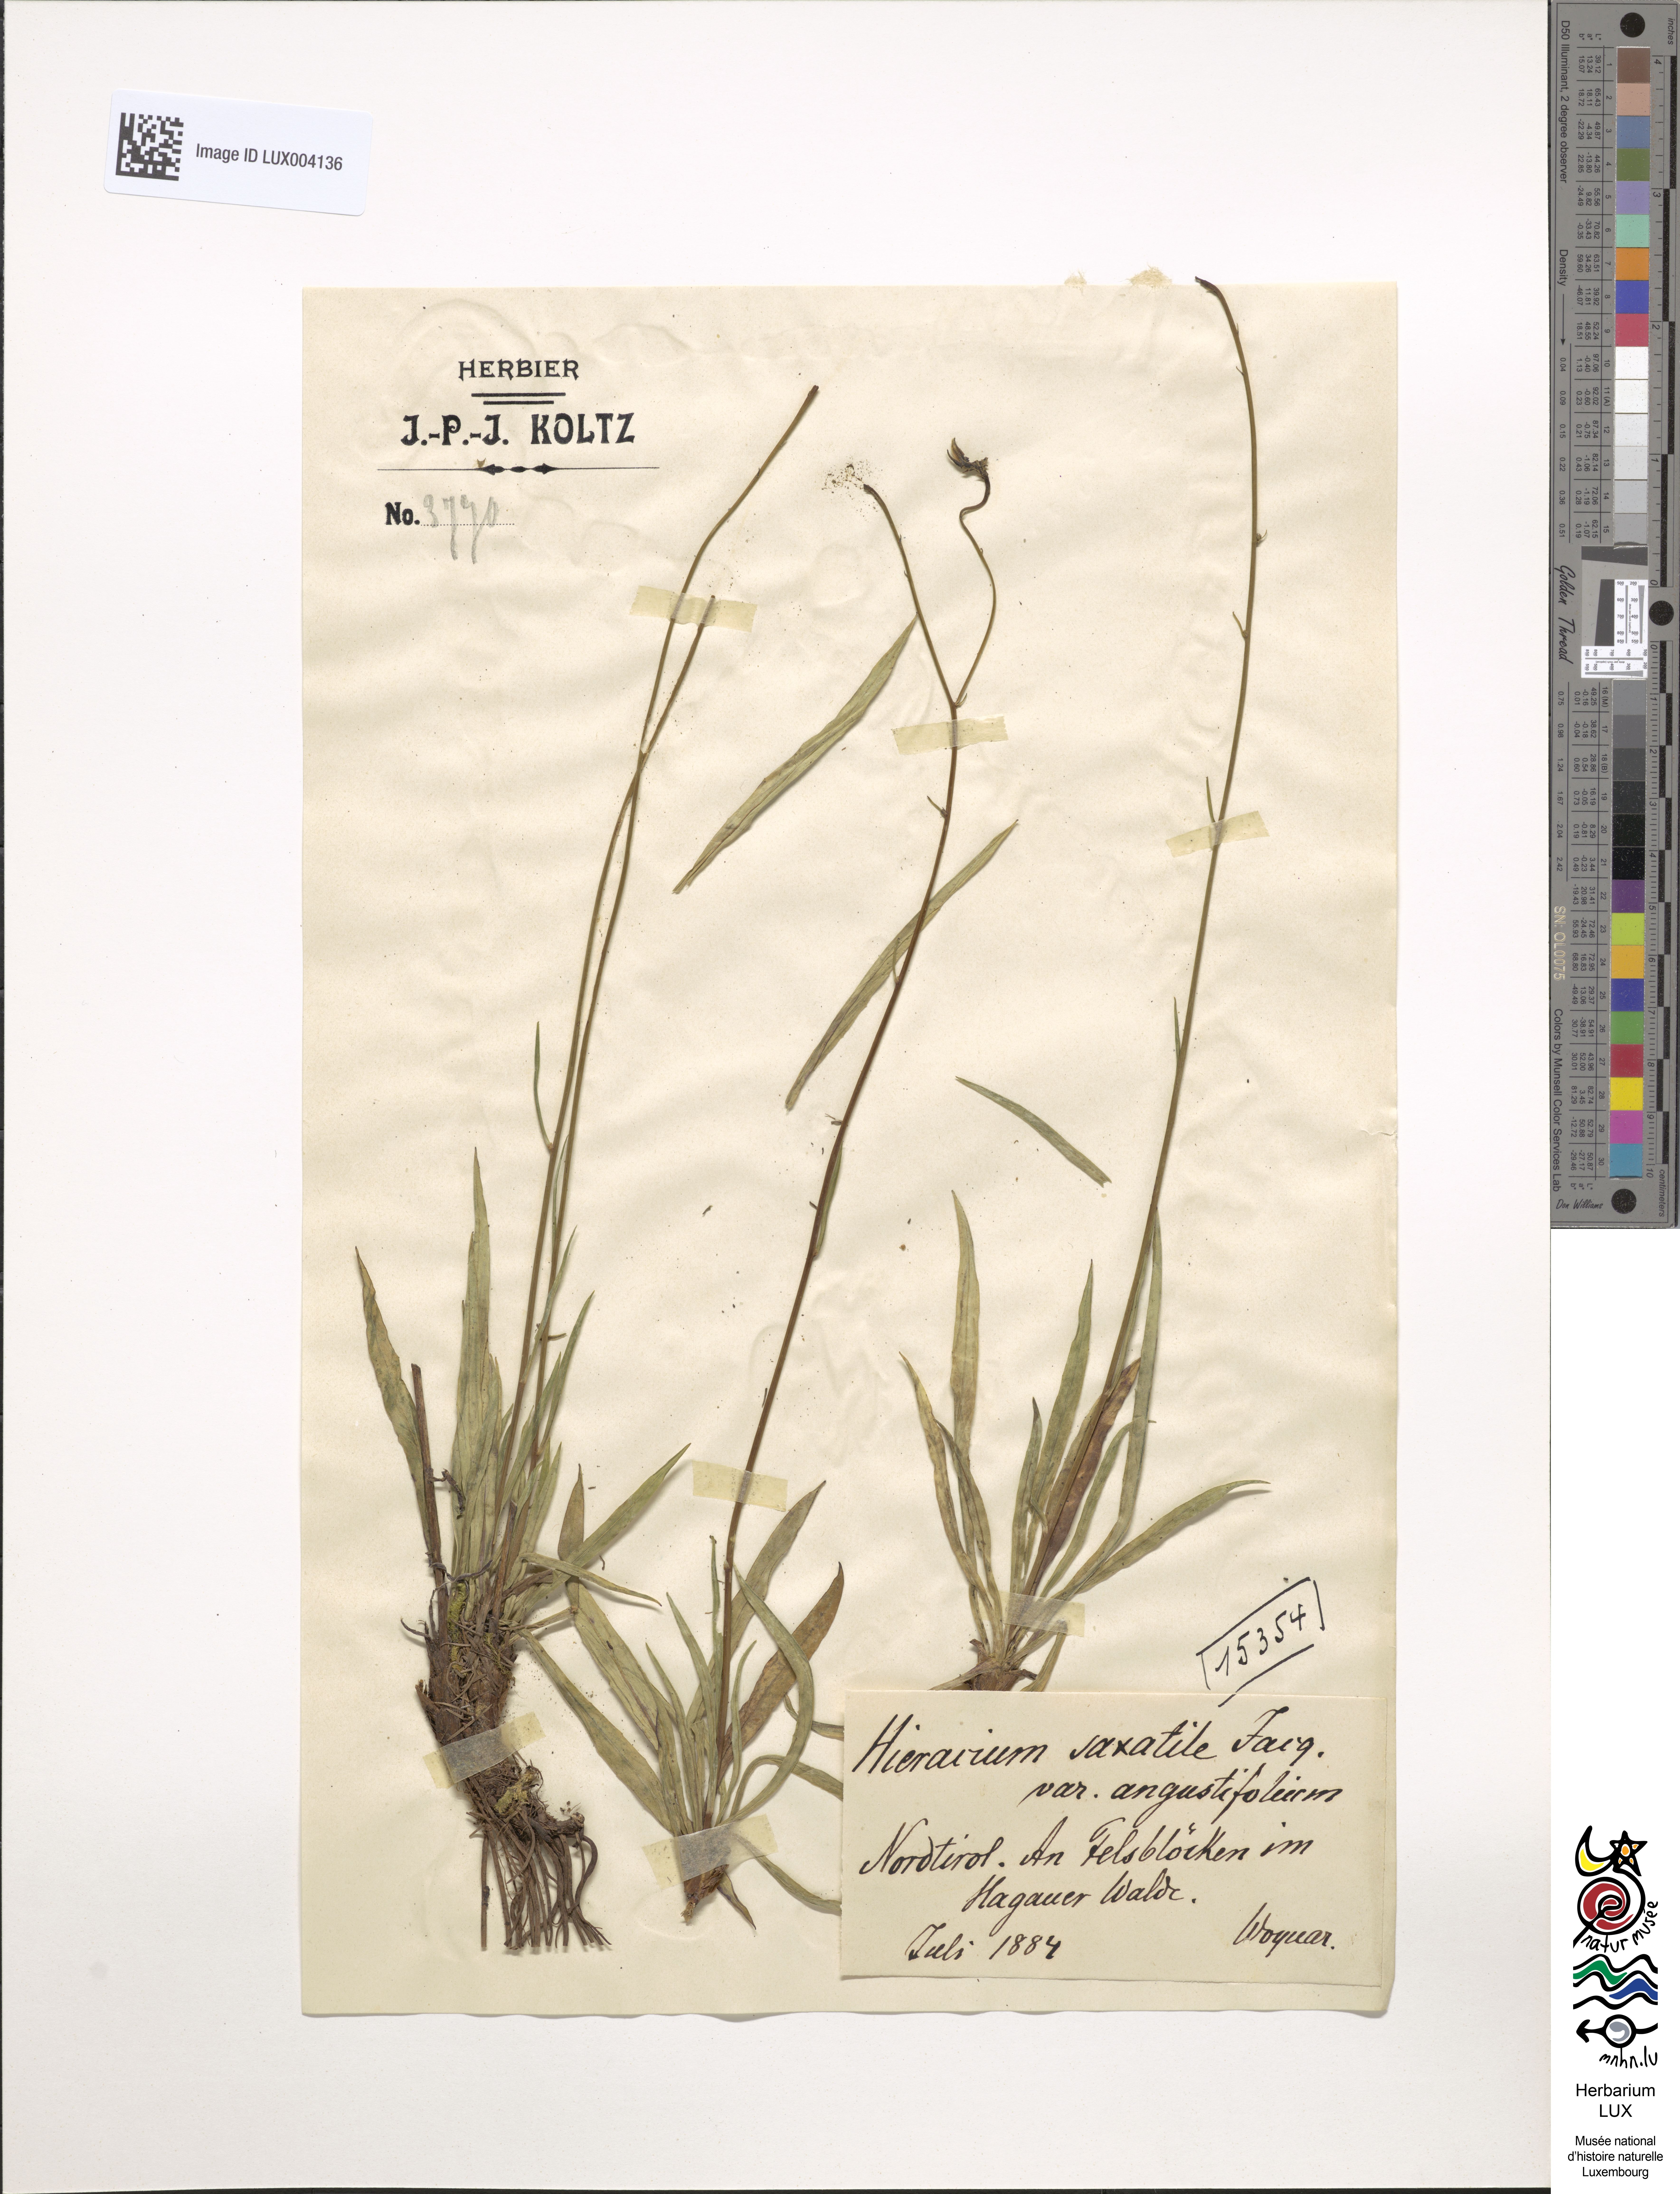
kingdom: Plantae
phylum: Tracheophyta
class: Magnoliopsida
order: Asterales
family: Asteraceae
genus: Hieracium
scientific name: Hieracium saxatile
